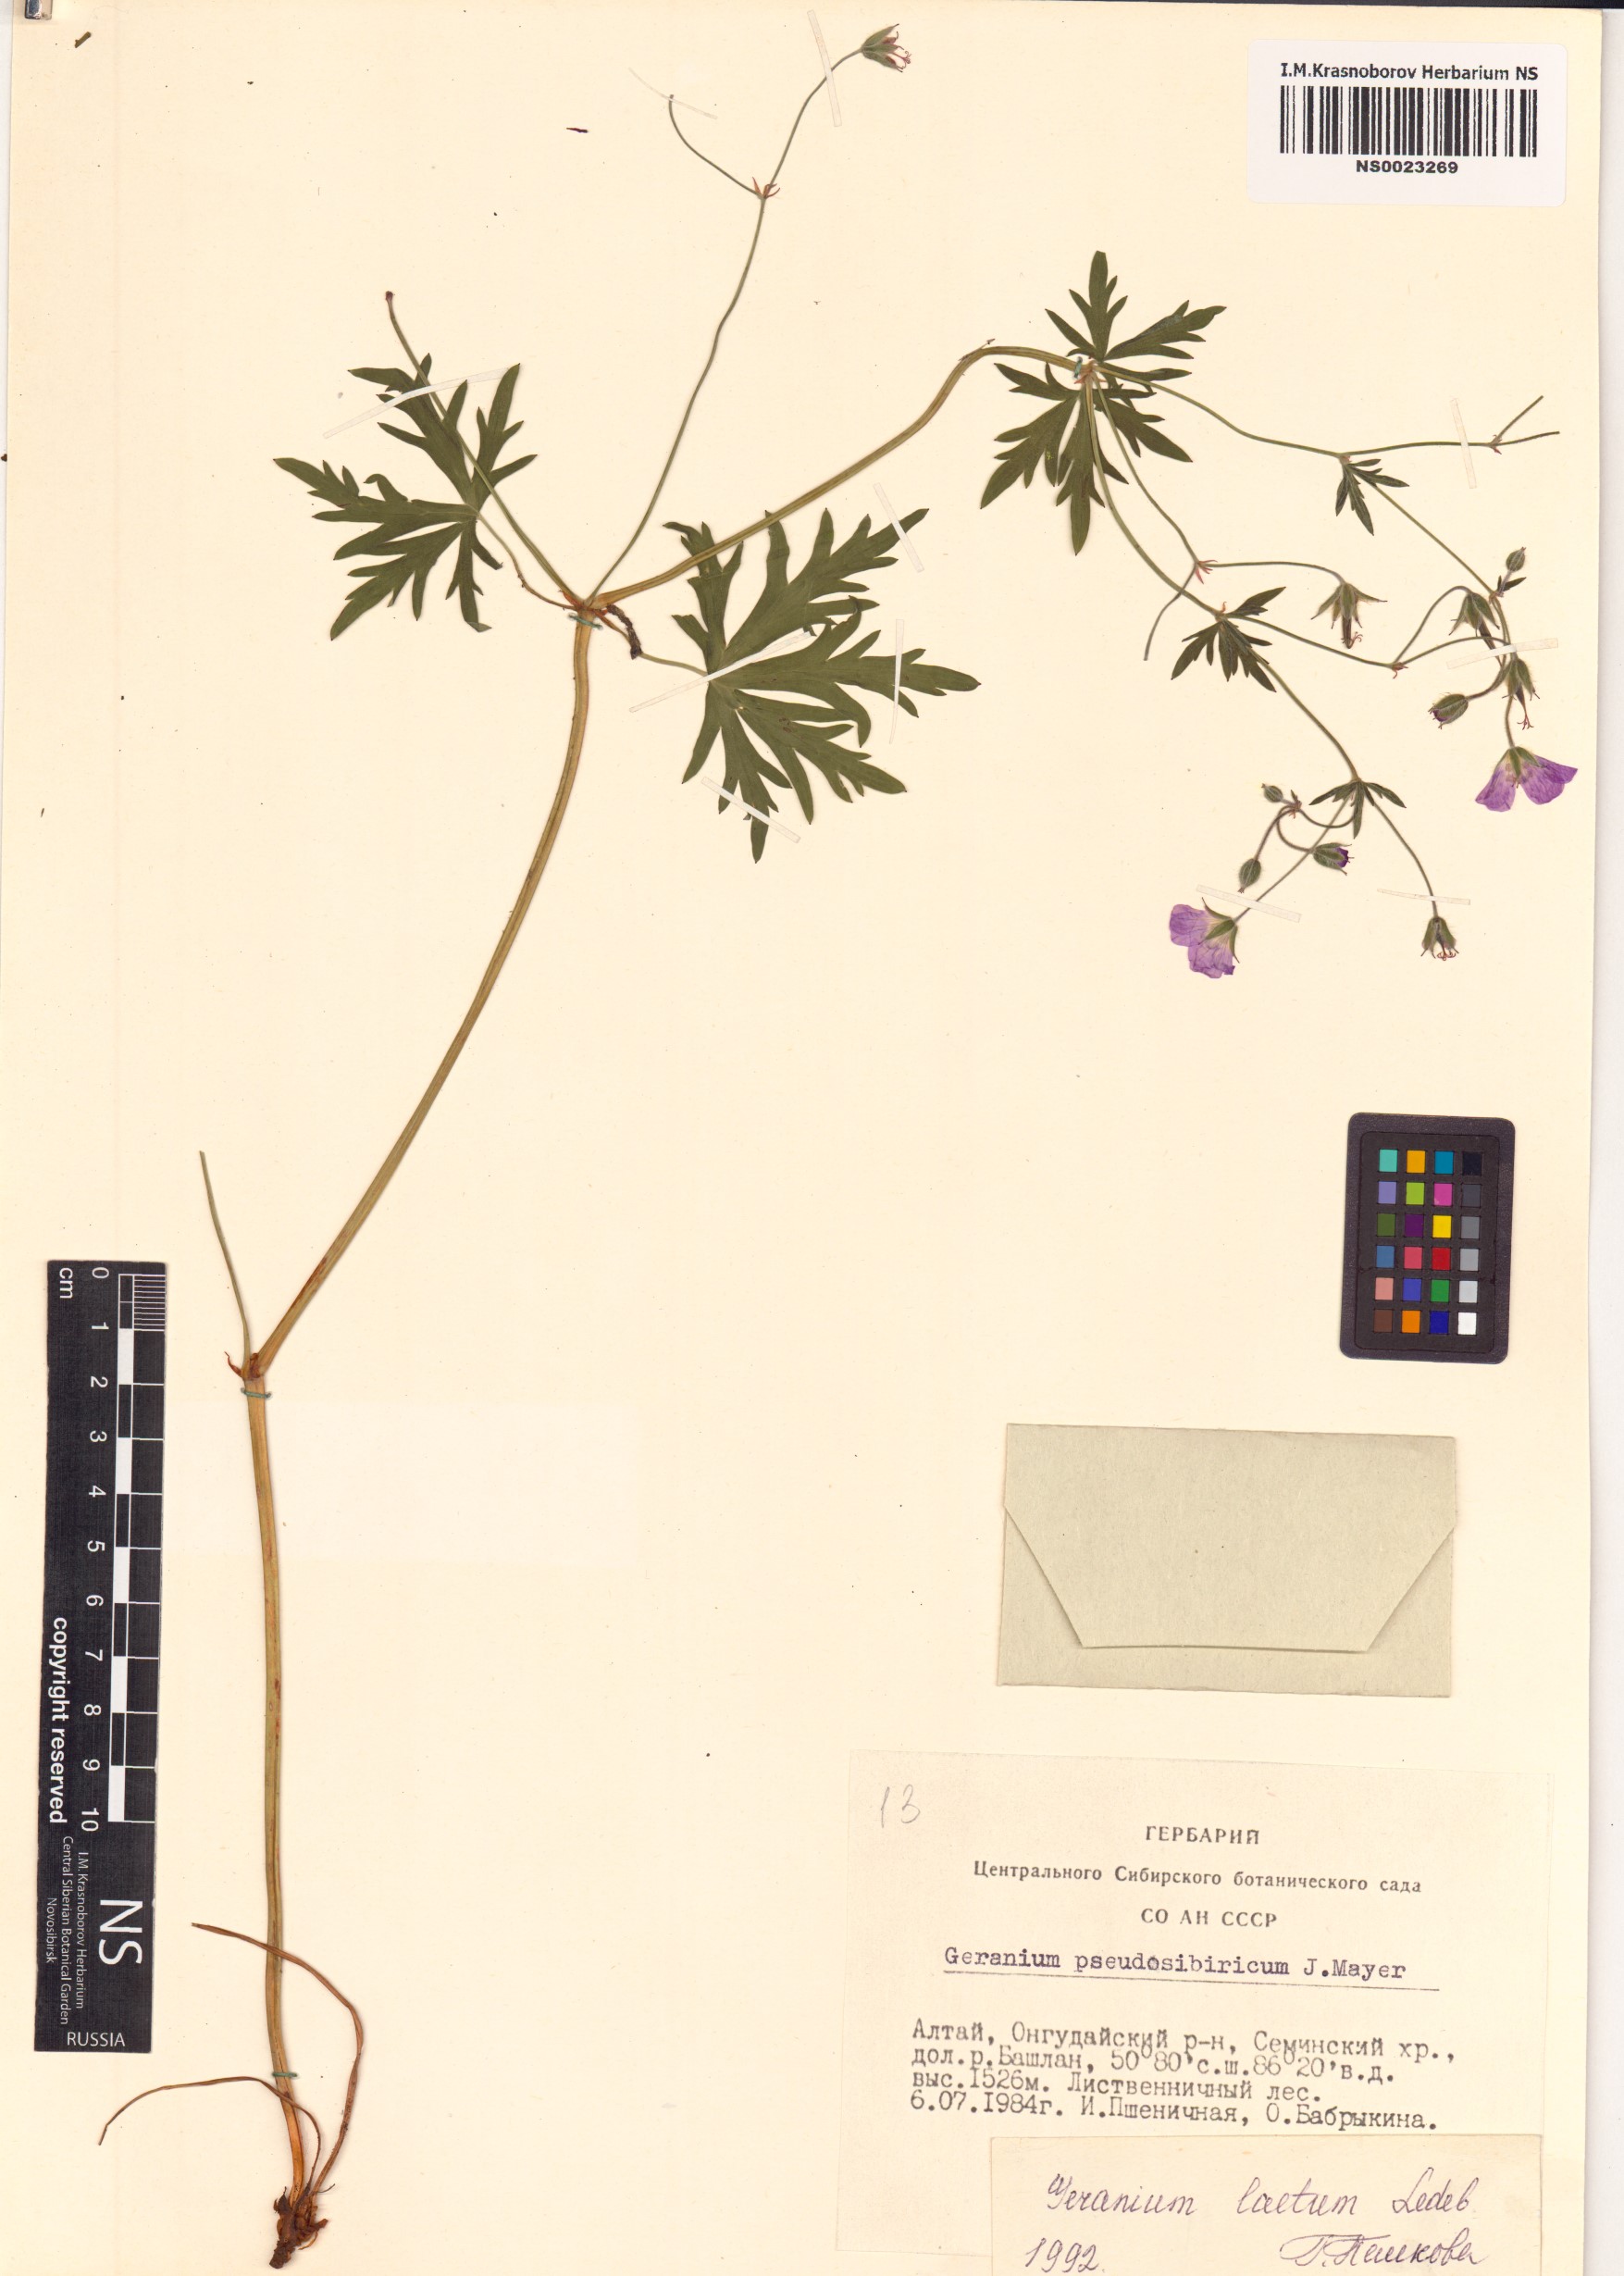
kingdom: Plantae
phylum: Tracheophyta
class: Magnoliopsida
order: Geraniales
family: Geraniaceae
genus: Geranium
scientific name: Geranium pseudosibiricum
